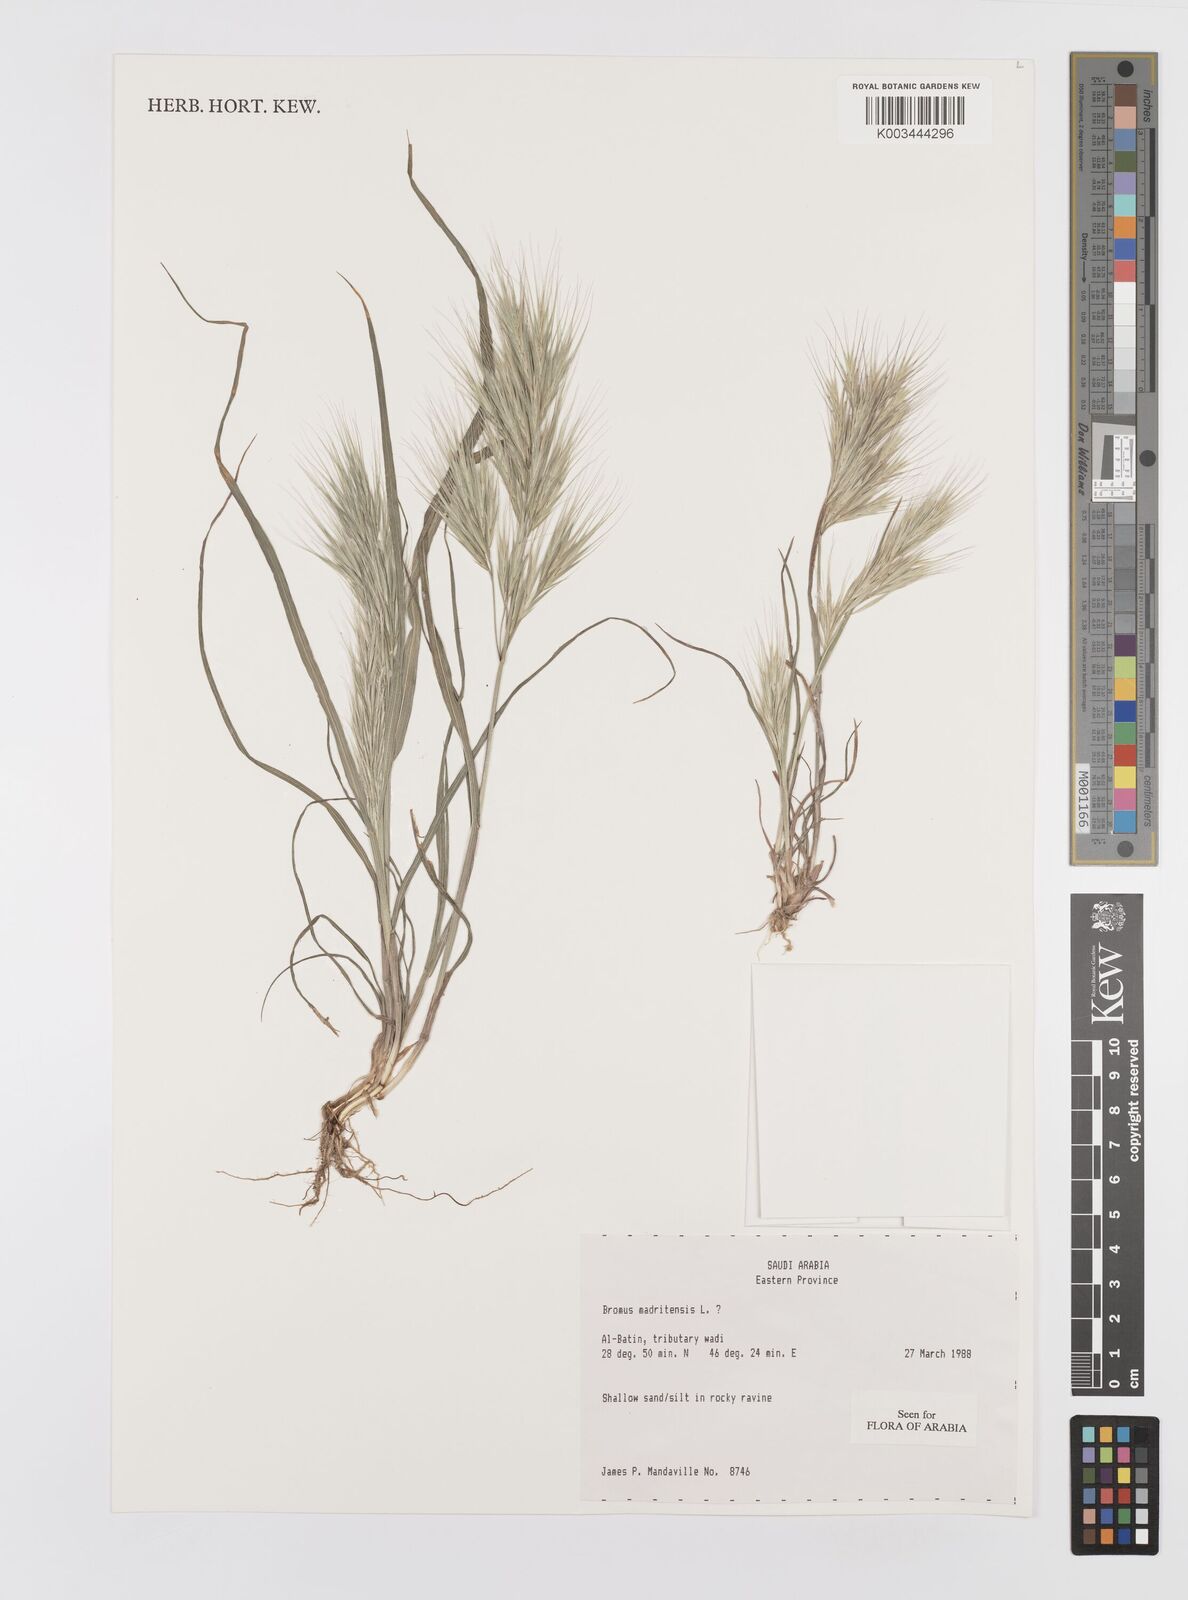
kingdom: Plantae
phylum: Tracheophyta
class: Liliopsida
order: Poales
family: Poaceae
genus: Bromus
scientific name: Bromus madritensis
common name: Compact brome
